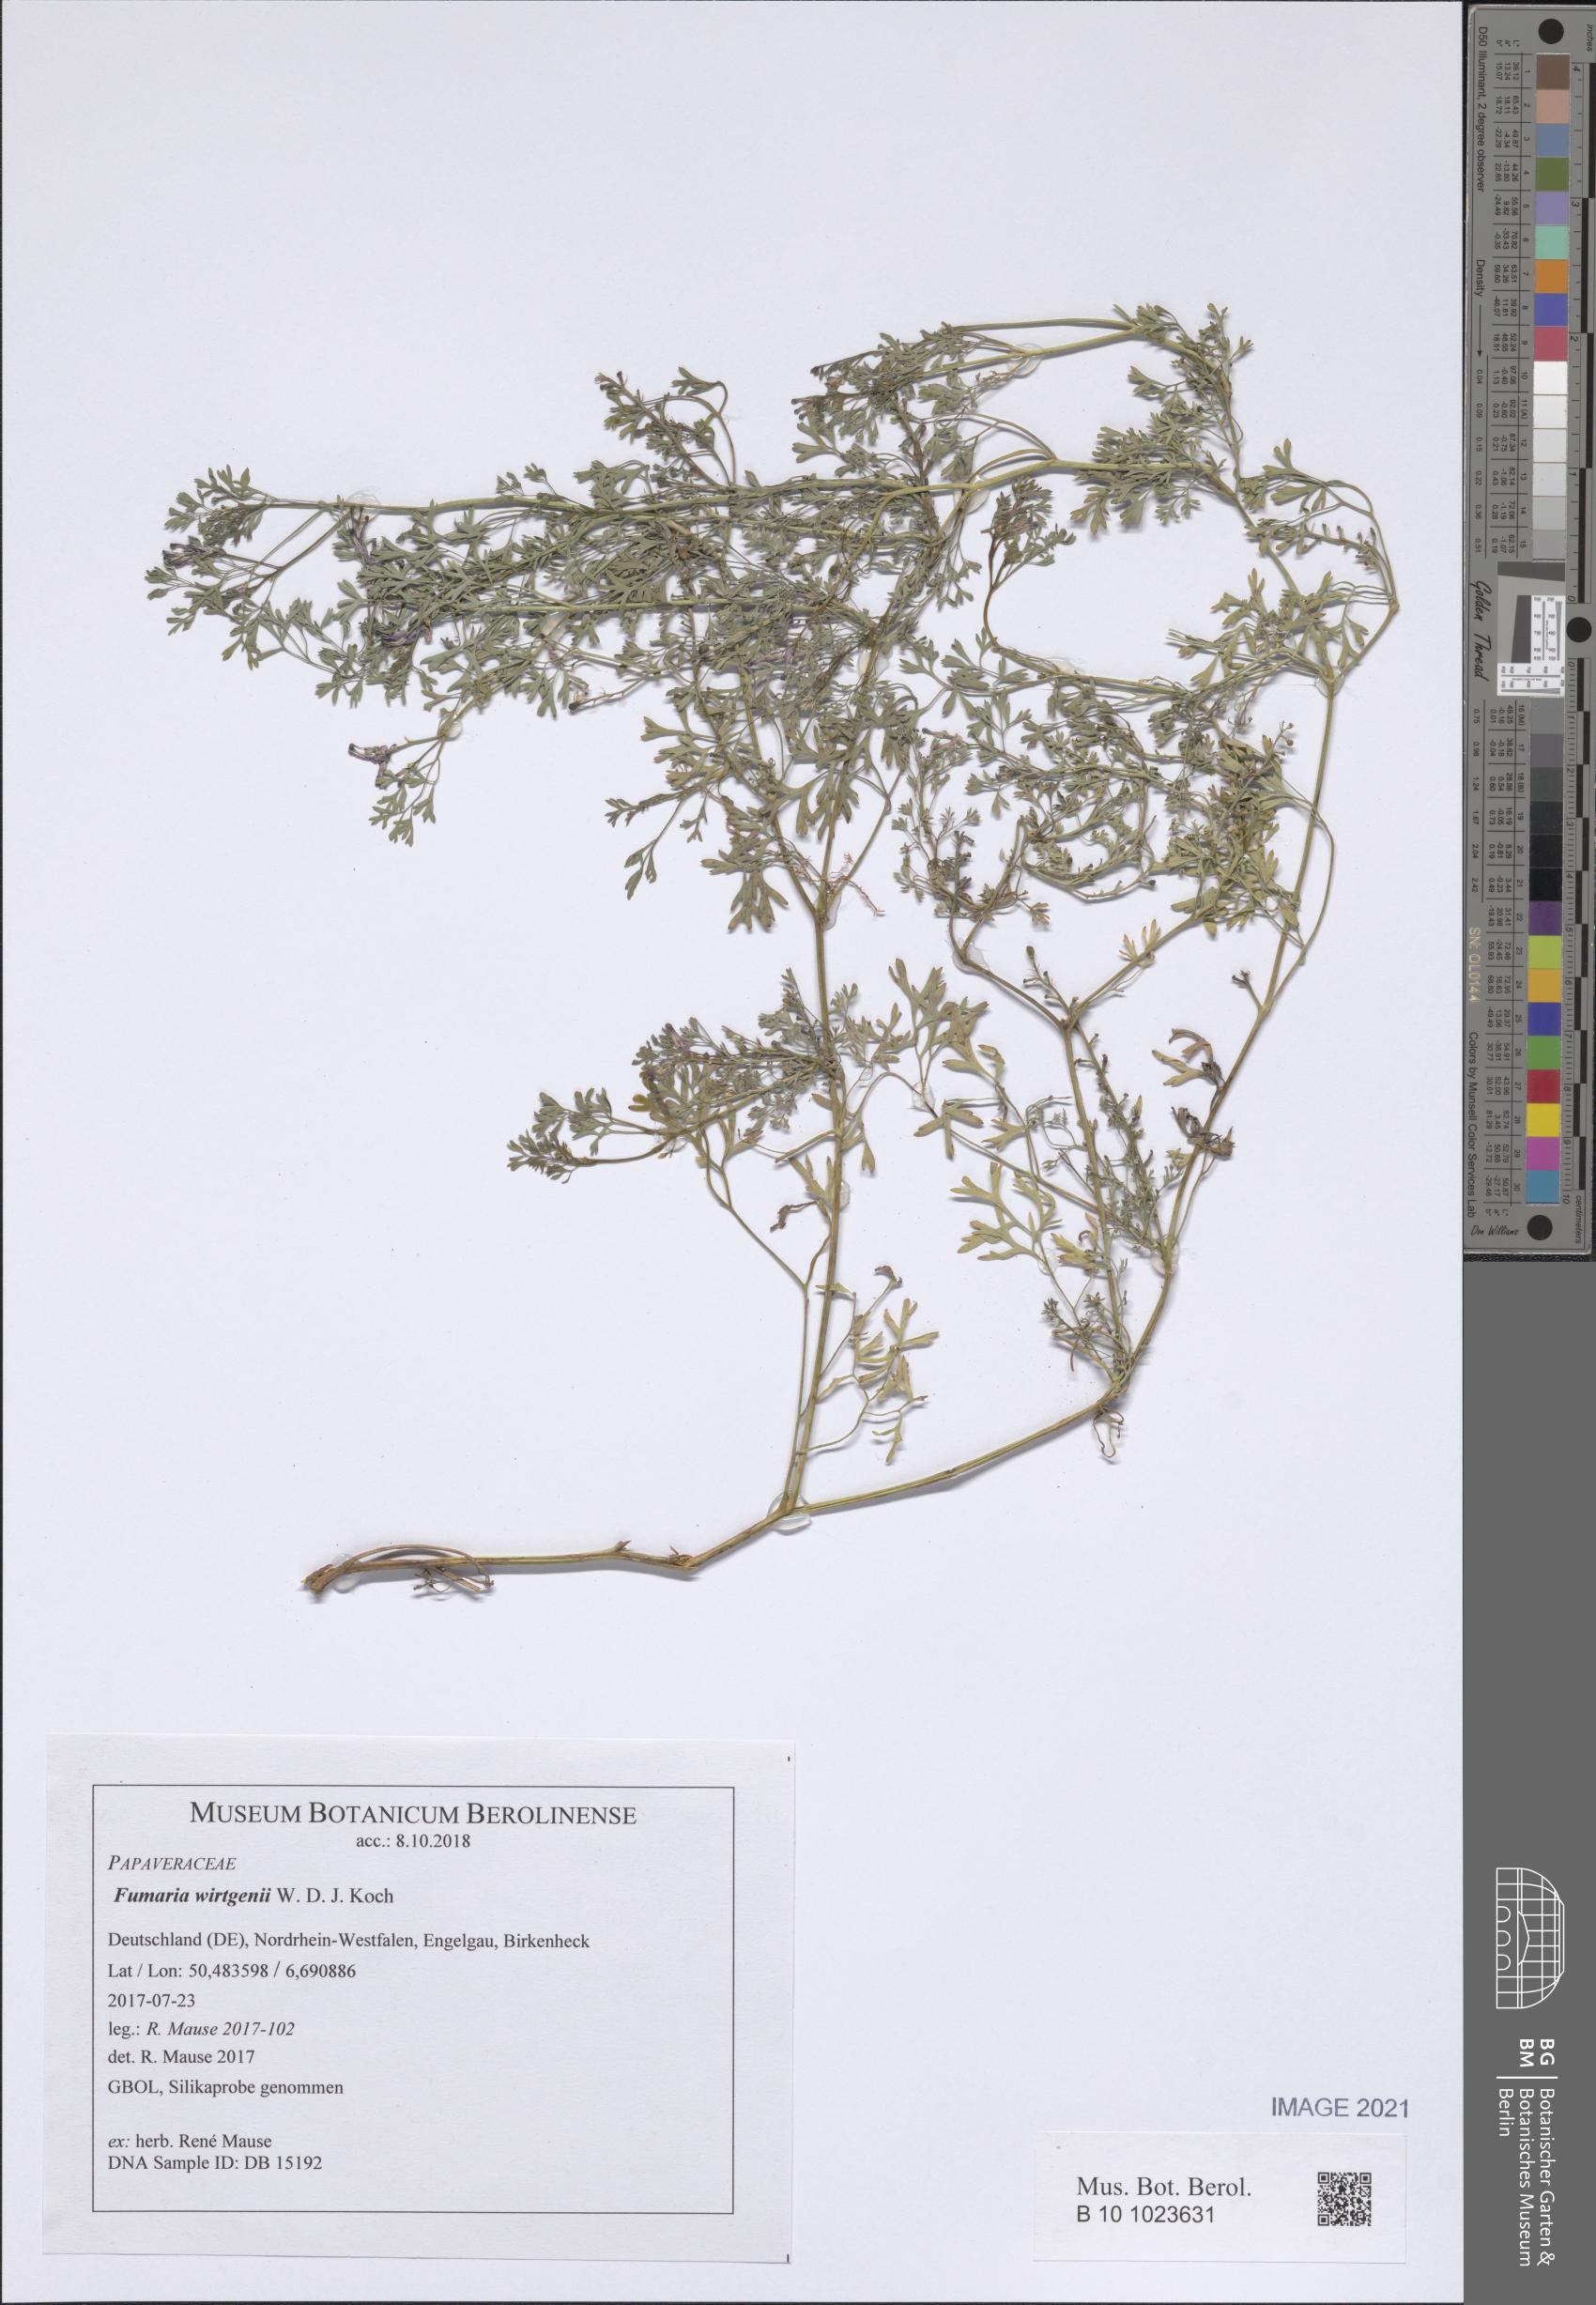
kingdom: Plantae
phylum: Tracheophyta
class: Magnoliopsida
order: Ranunculales
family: Papaveraceae
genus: Fumaria
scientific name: Fumaria wirtgenii
